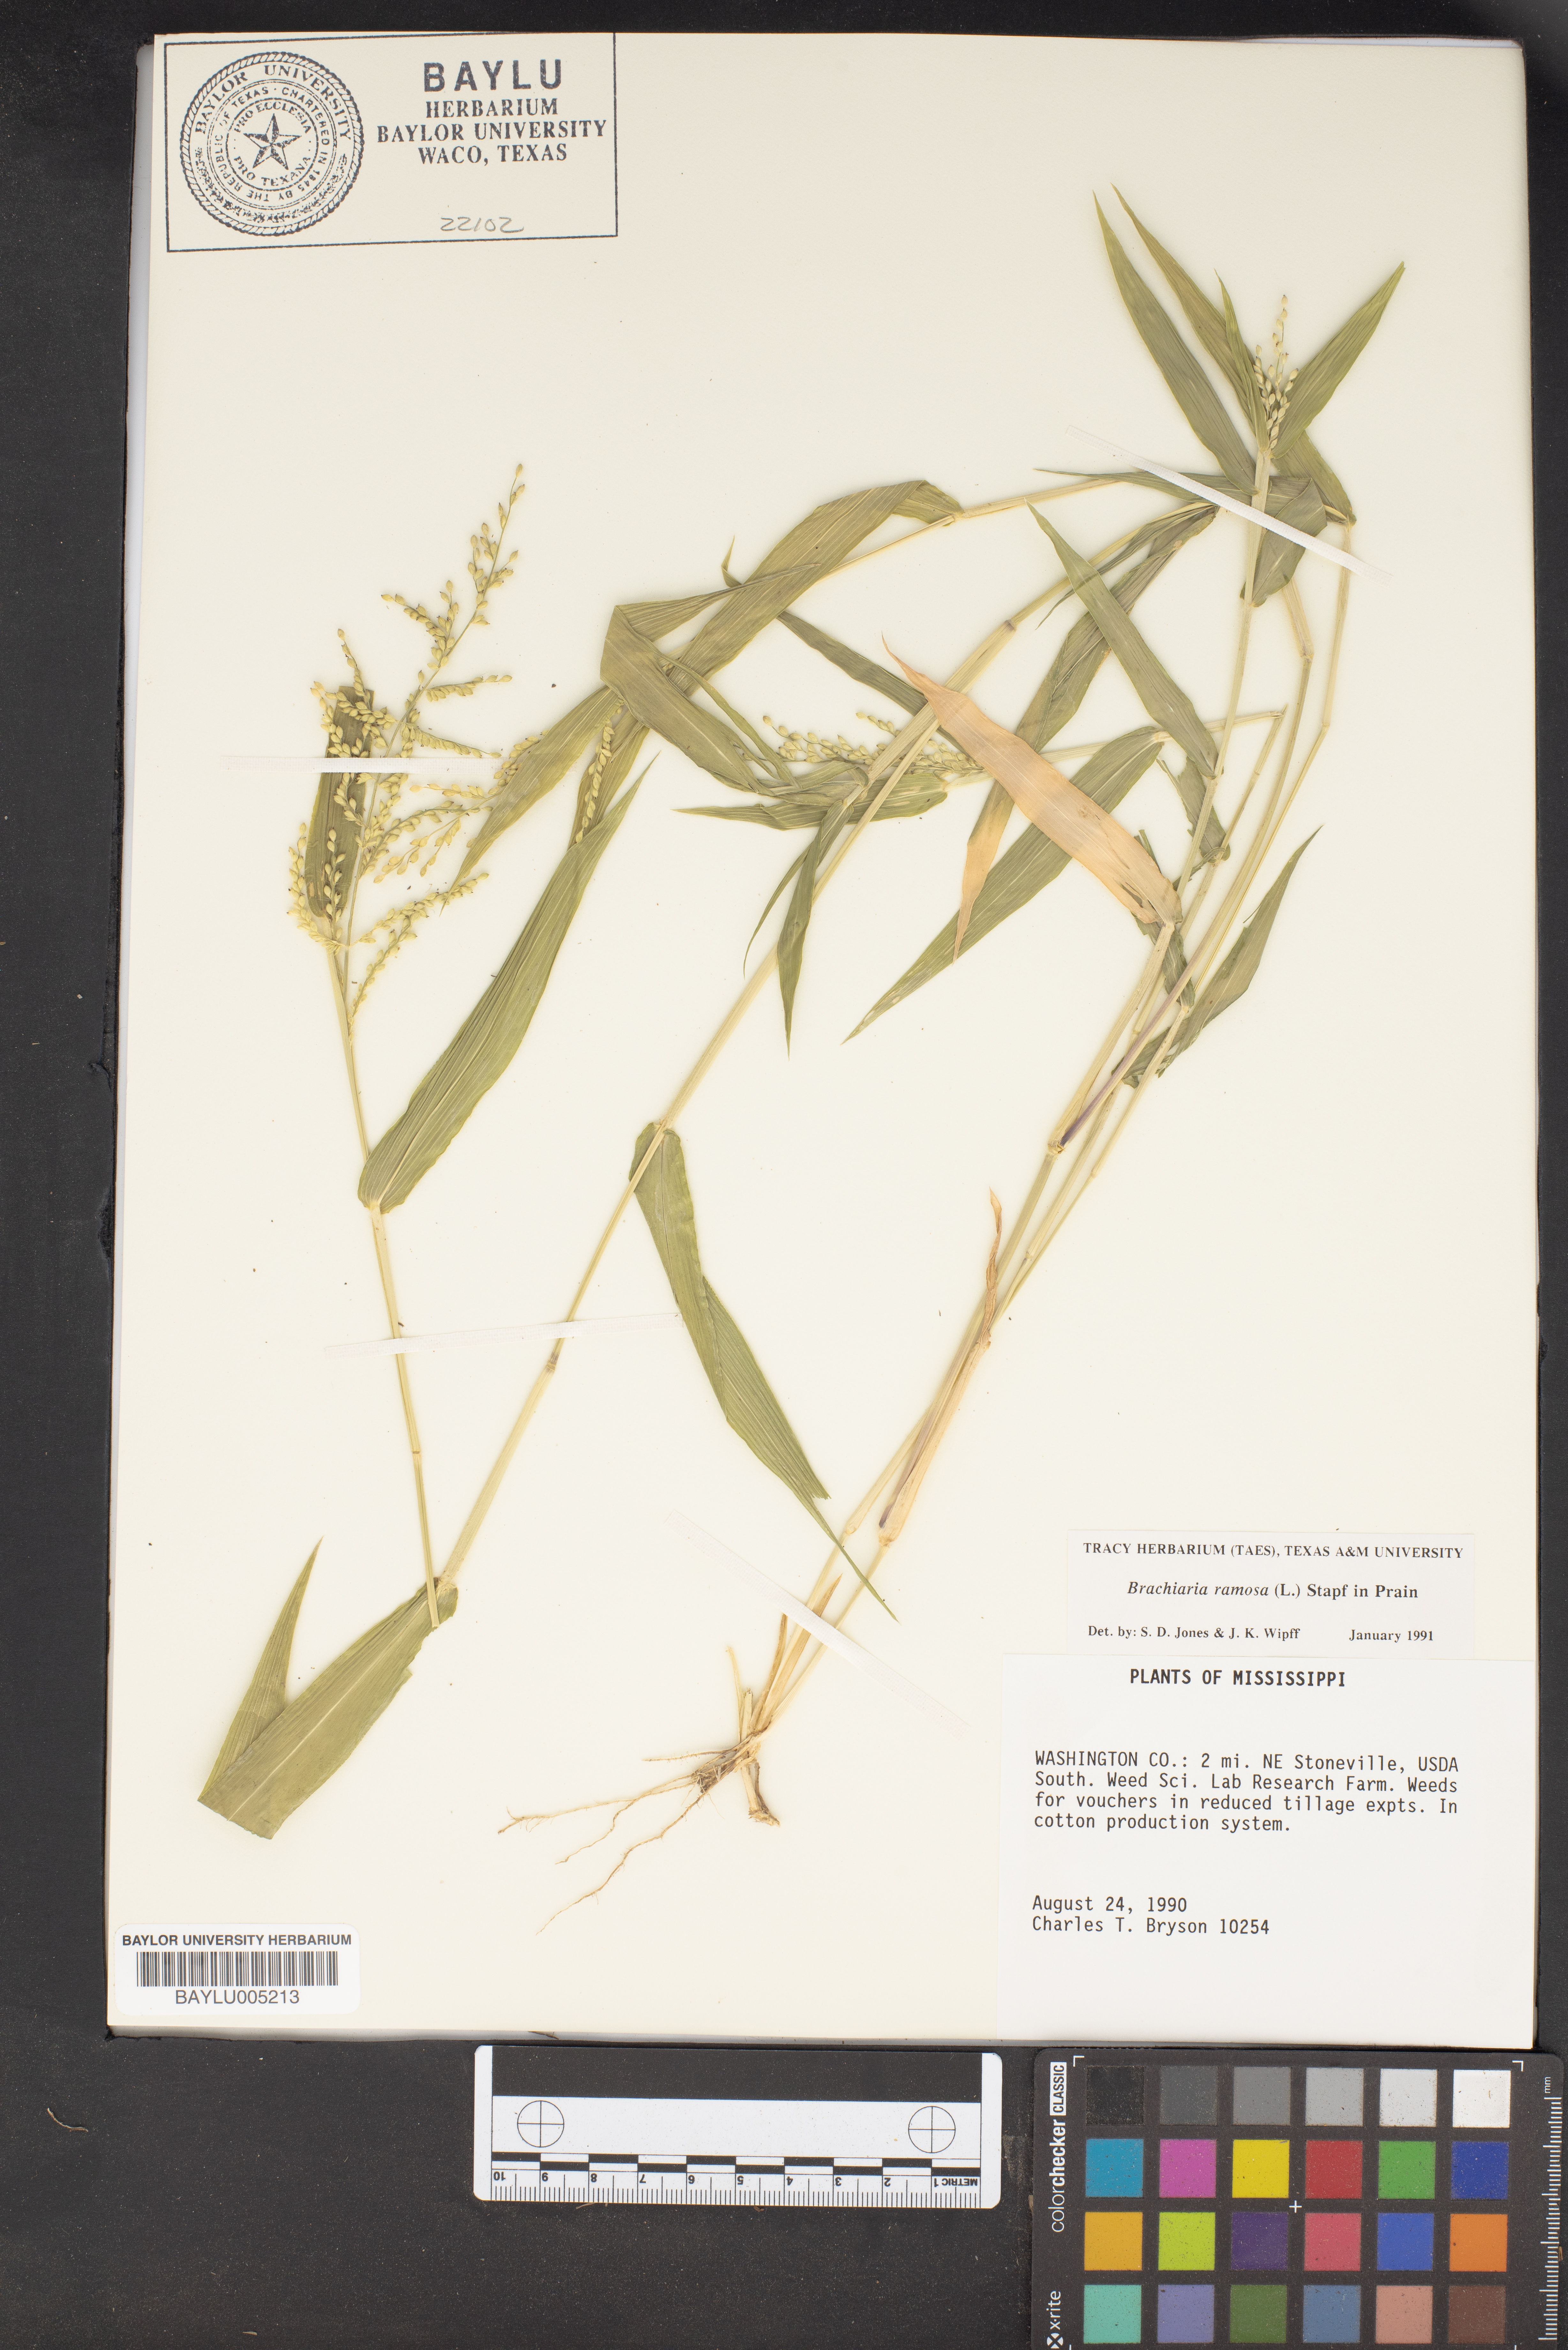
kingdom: Plantae
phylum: Tracheophyta
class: Liliopsida
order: Poales
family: Poaceae
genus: Urochloa
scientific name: Urochloa ramosa
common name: Browntop millet
